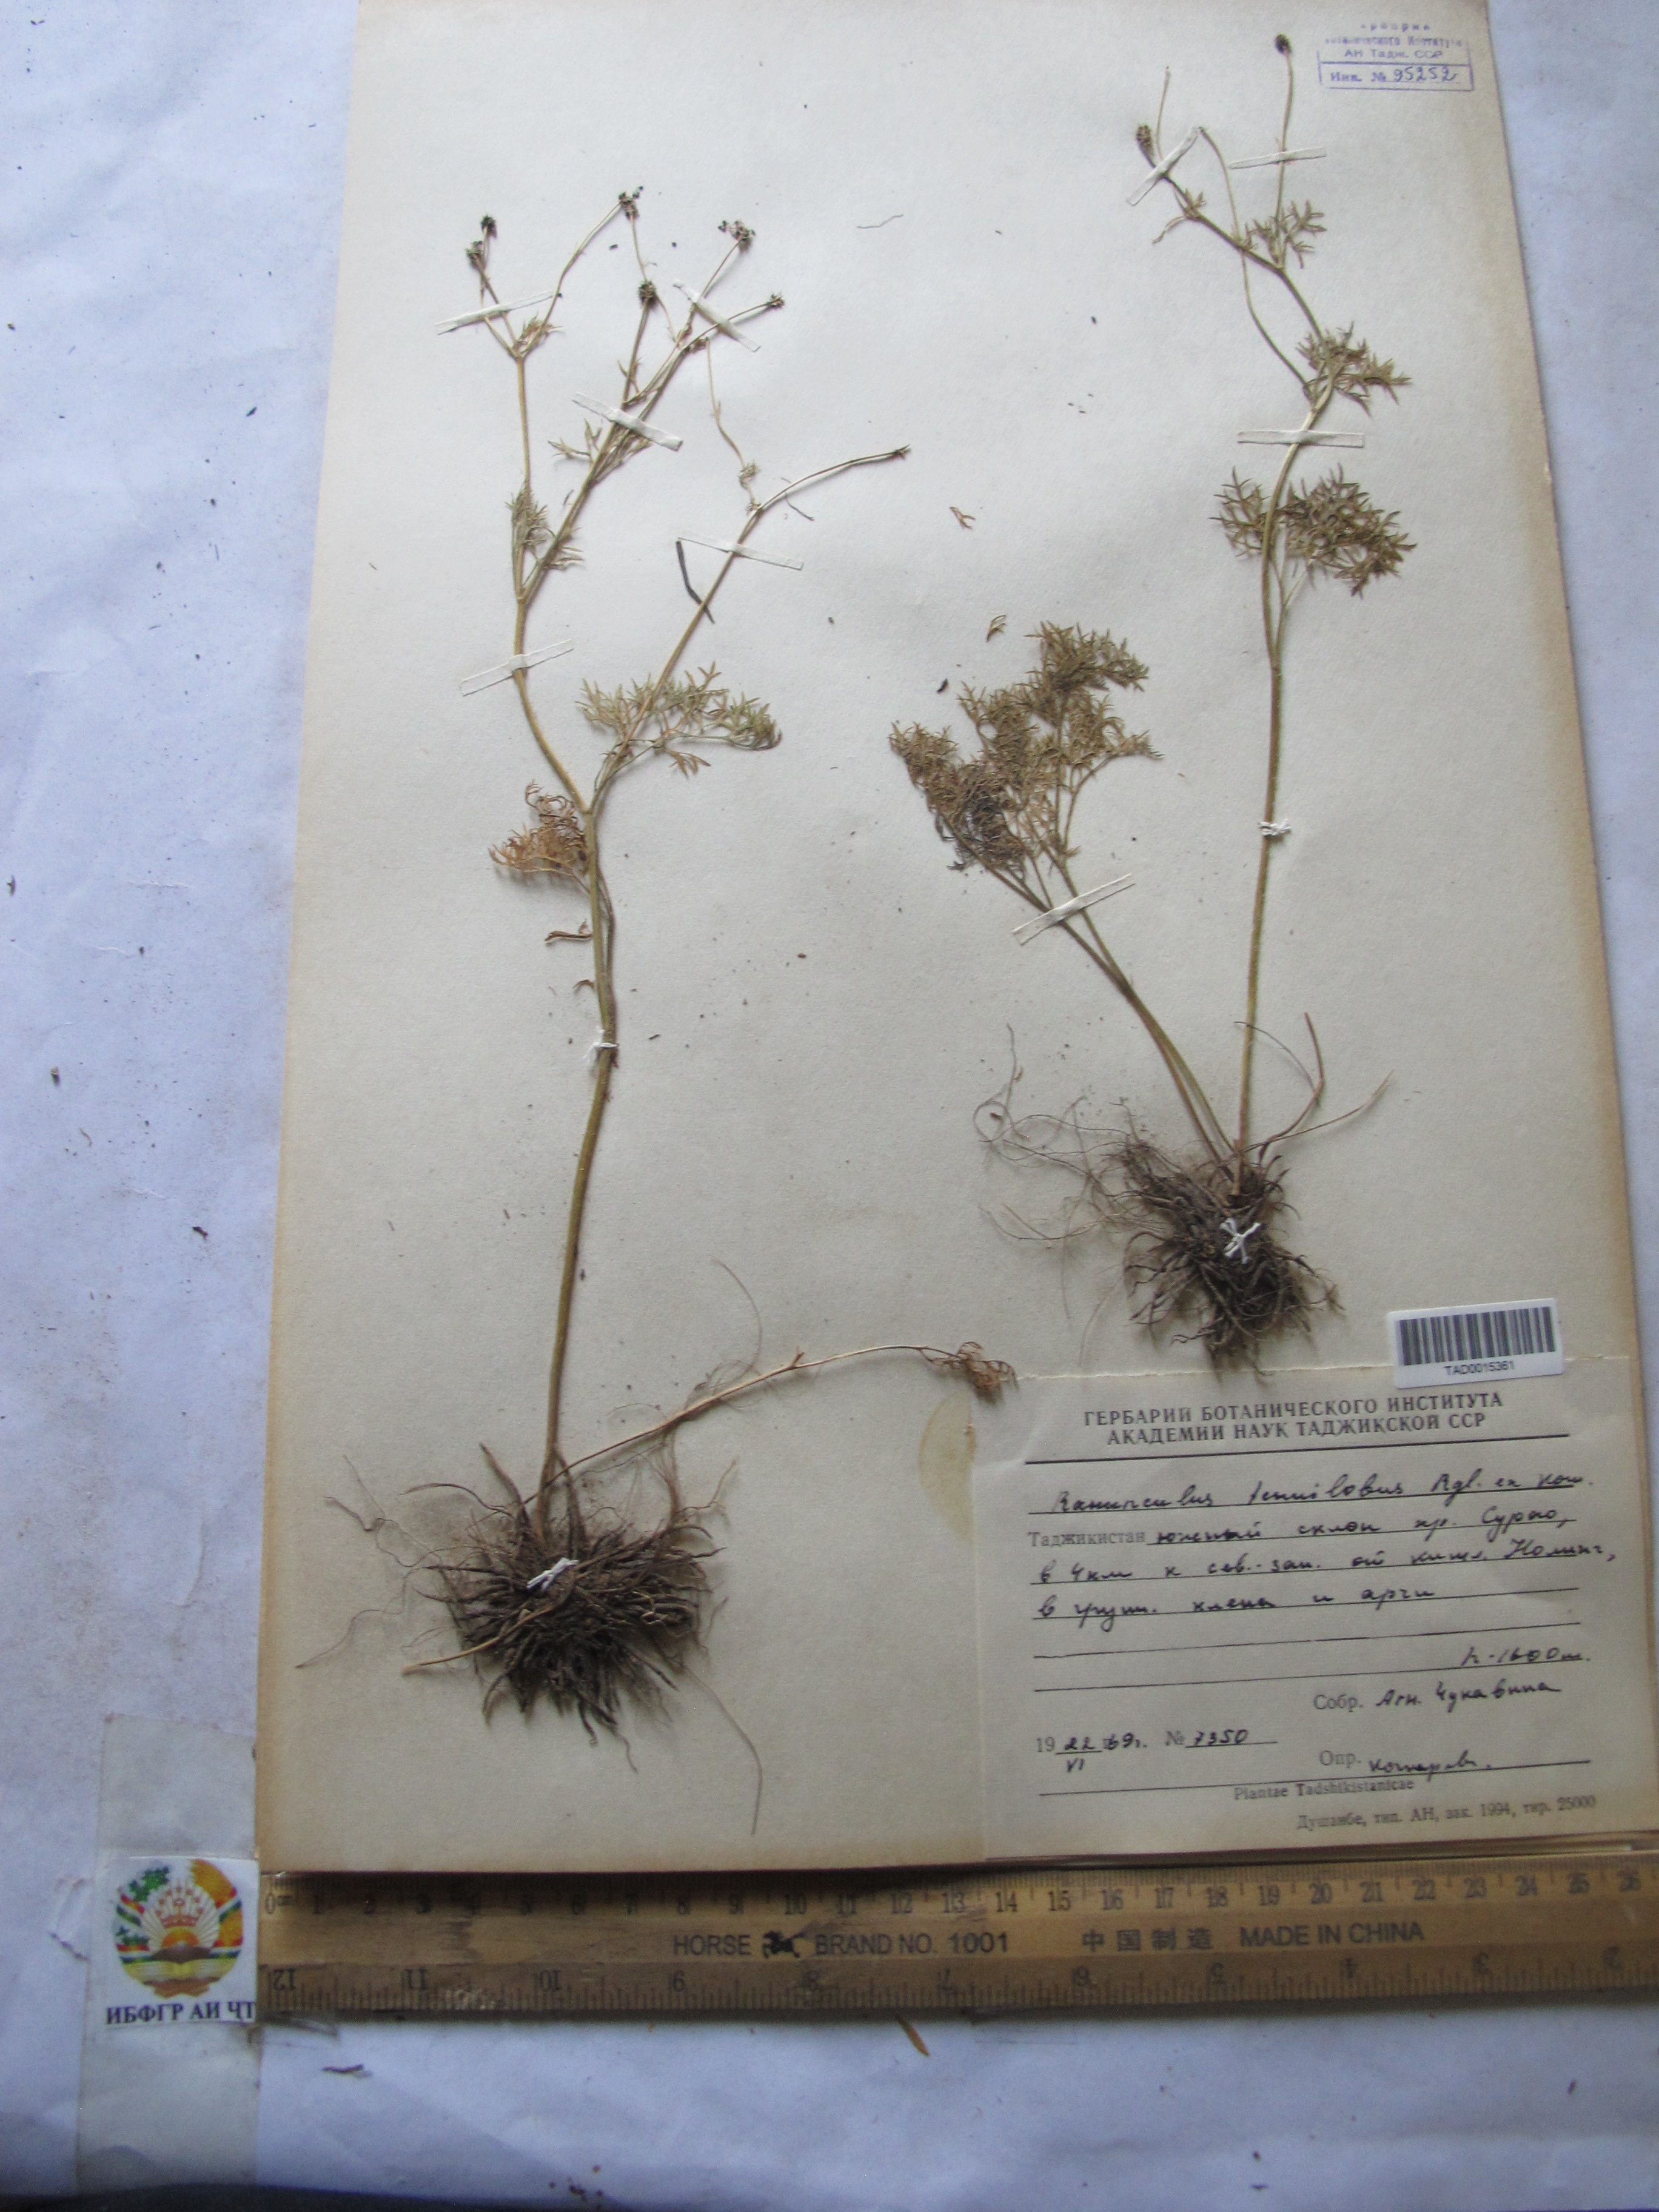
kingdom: Plantae
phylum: Tracheophyta
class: Magnoliopsida
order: Ranunculales
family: Ranunculaceae
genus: Ranunculus
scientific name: Ranunculus tenuilobus
